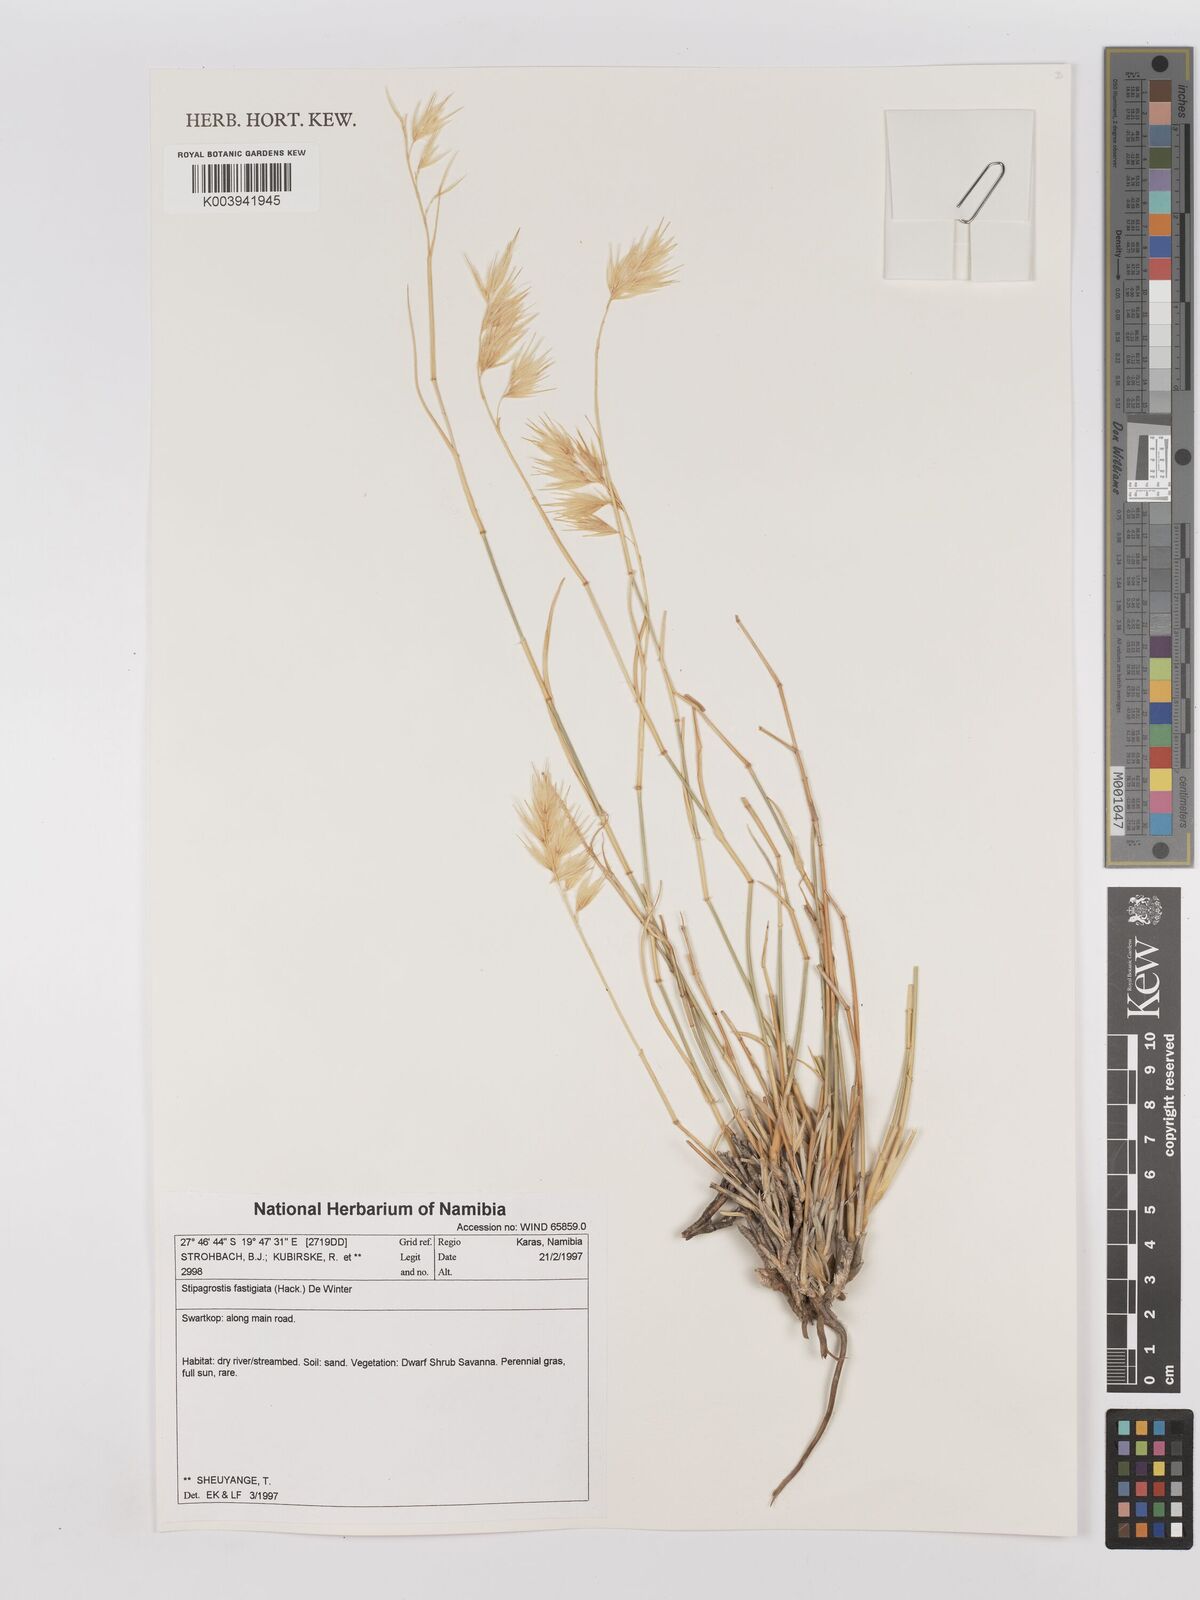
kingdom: Plantae
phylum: Tracheophyta
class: Liliopsida
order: Poales
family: Poaceae
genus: Stipagrostis
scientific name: Stipagrostis fastigiata
